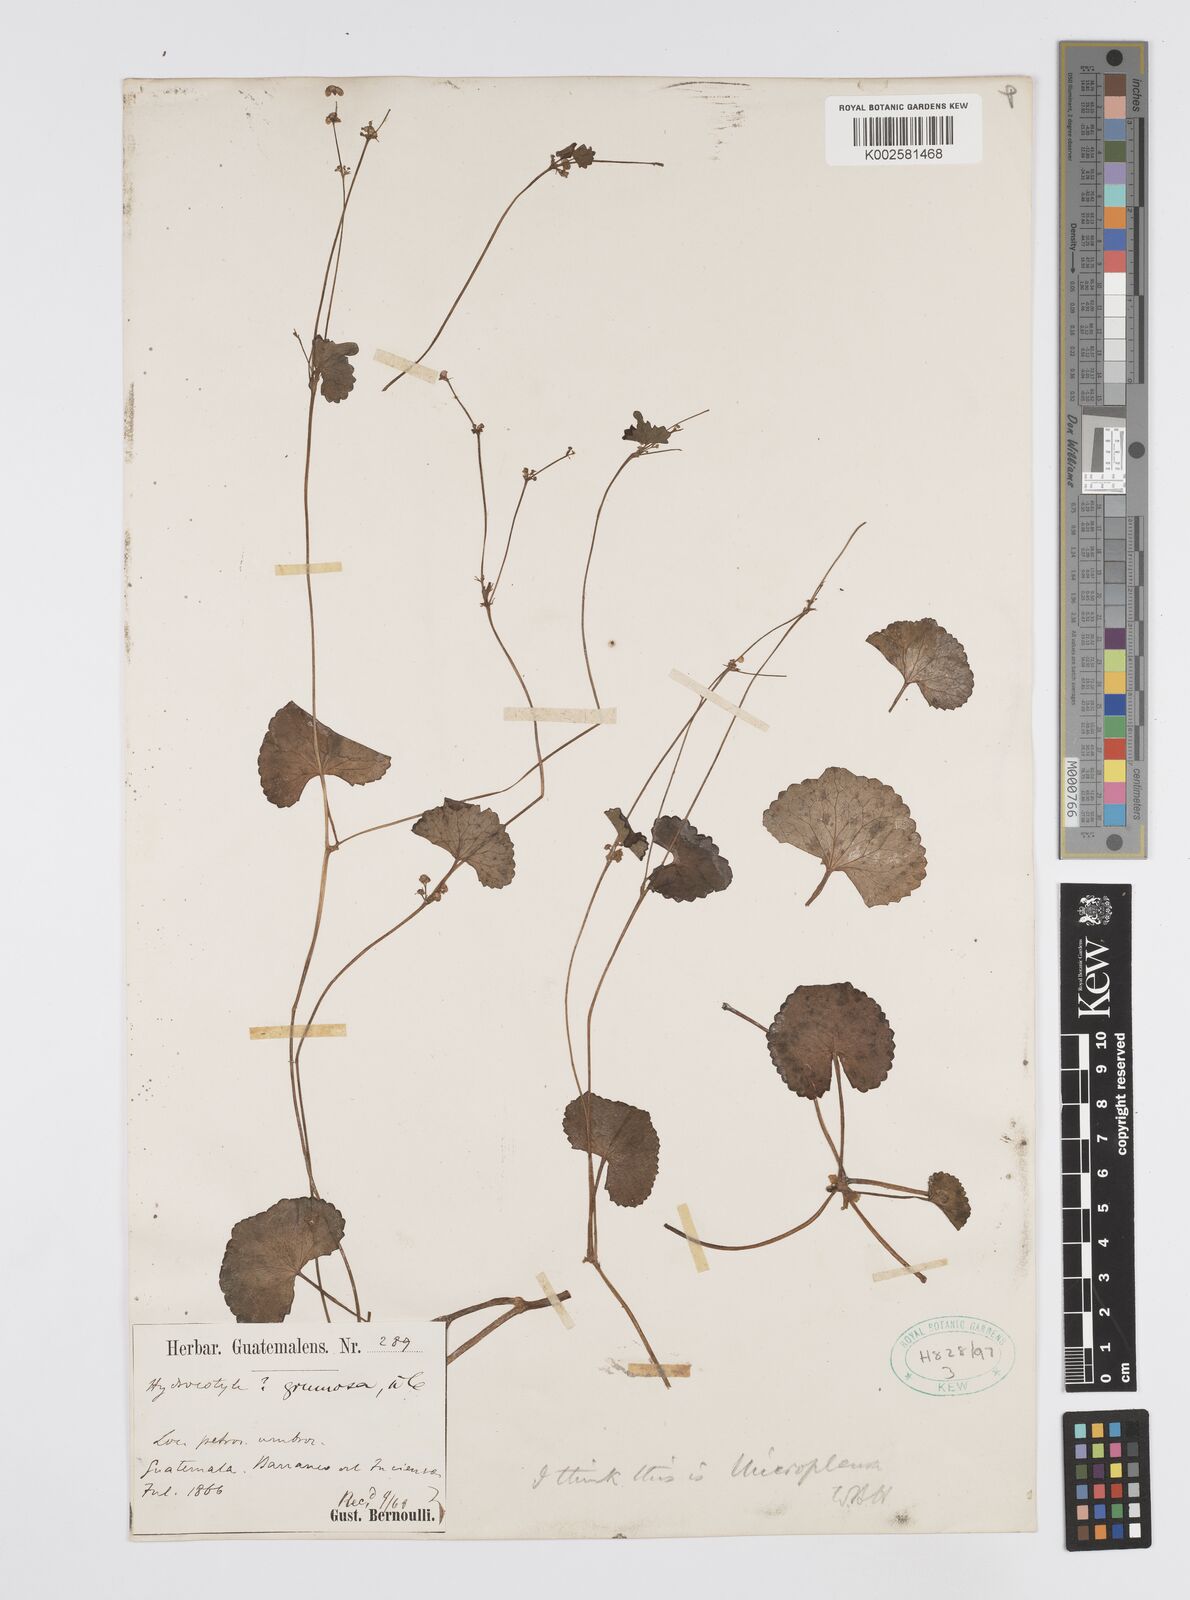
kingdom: Plantae
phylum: Tracheophyta
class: Magnoliopsida
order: Apiales
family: Apiaceae
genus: Centella
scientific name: Centella
